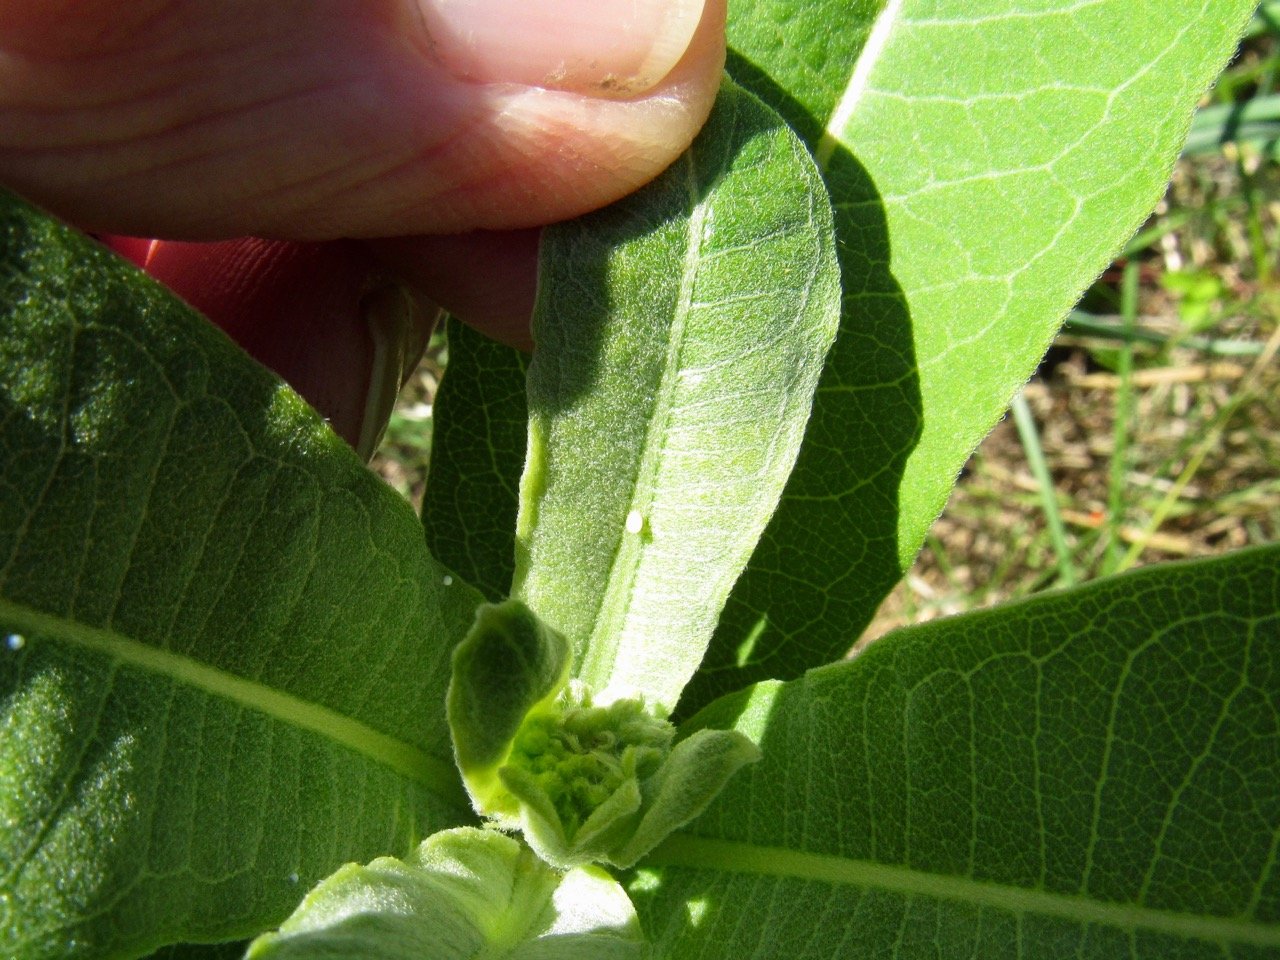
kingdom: Animalia
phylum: Arthropoda
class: Insecta
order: Lepidoptera
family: Nymphalidae
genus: Danaus
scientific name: Danaus plexippus
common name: Monarch
